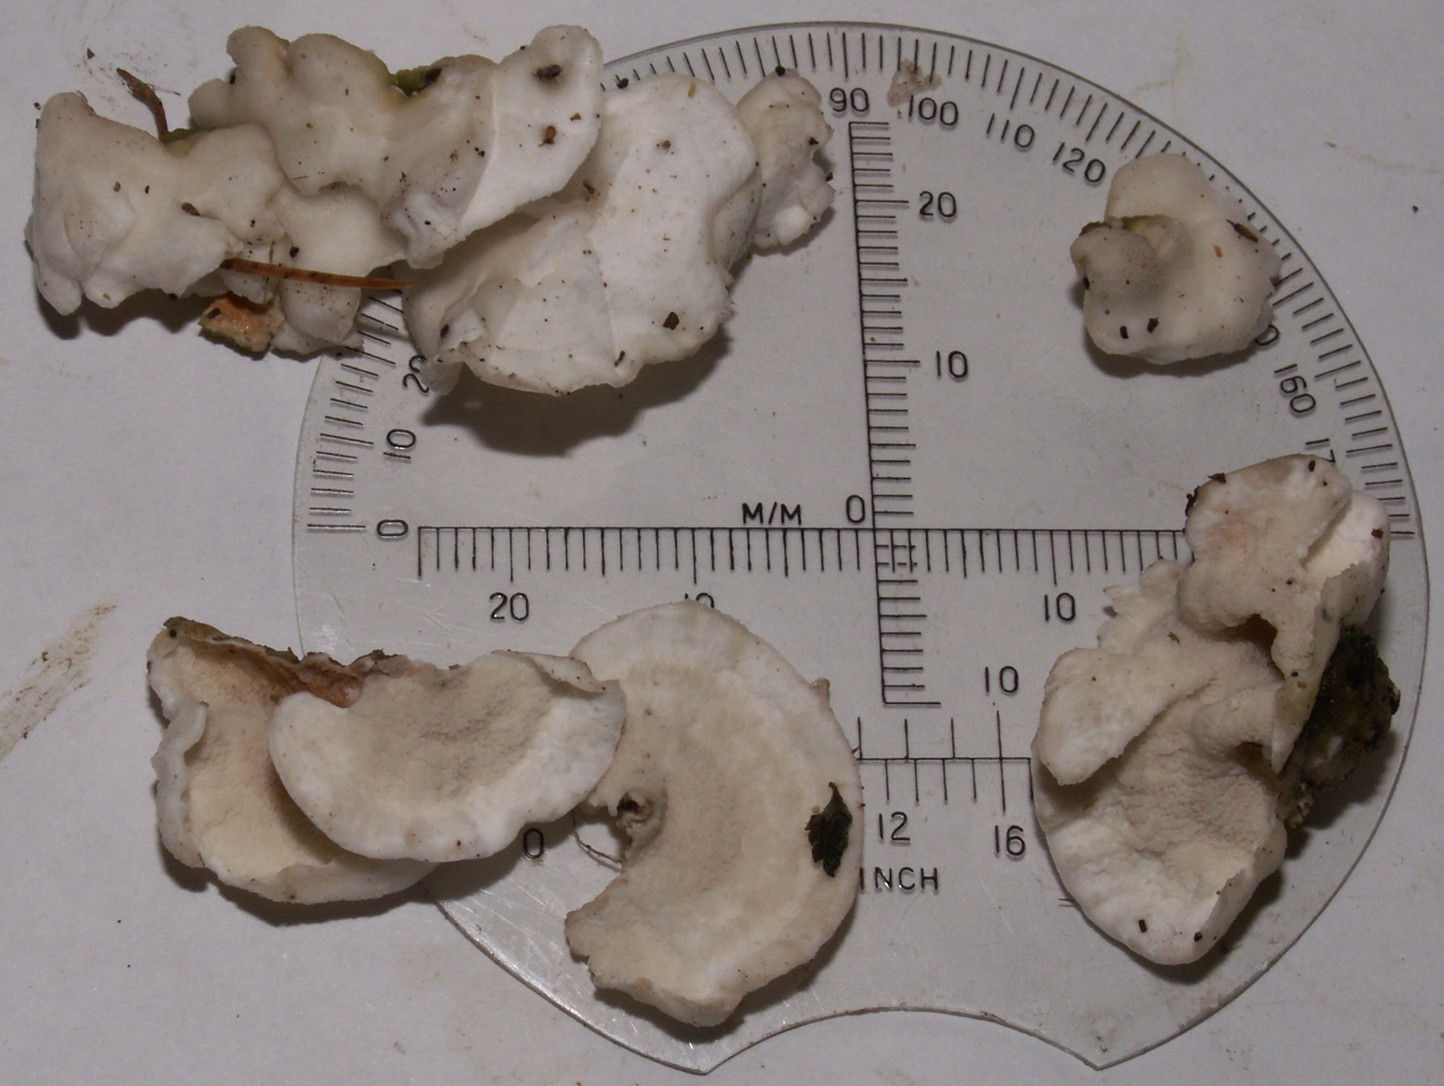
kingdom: Fungi
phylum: Basidiomycota
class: Agaricomycetes
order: Polyporales
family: Irpicaceae
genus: Byssomerulius
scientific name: Byssomerulius corium
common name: læder-åresvamp
